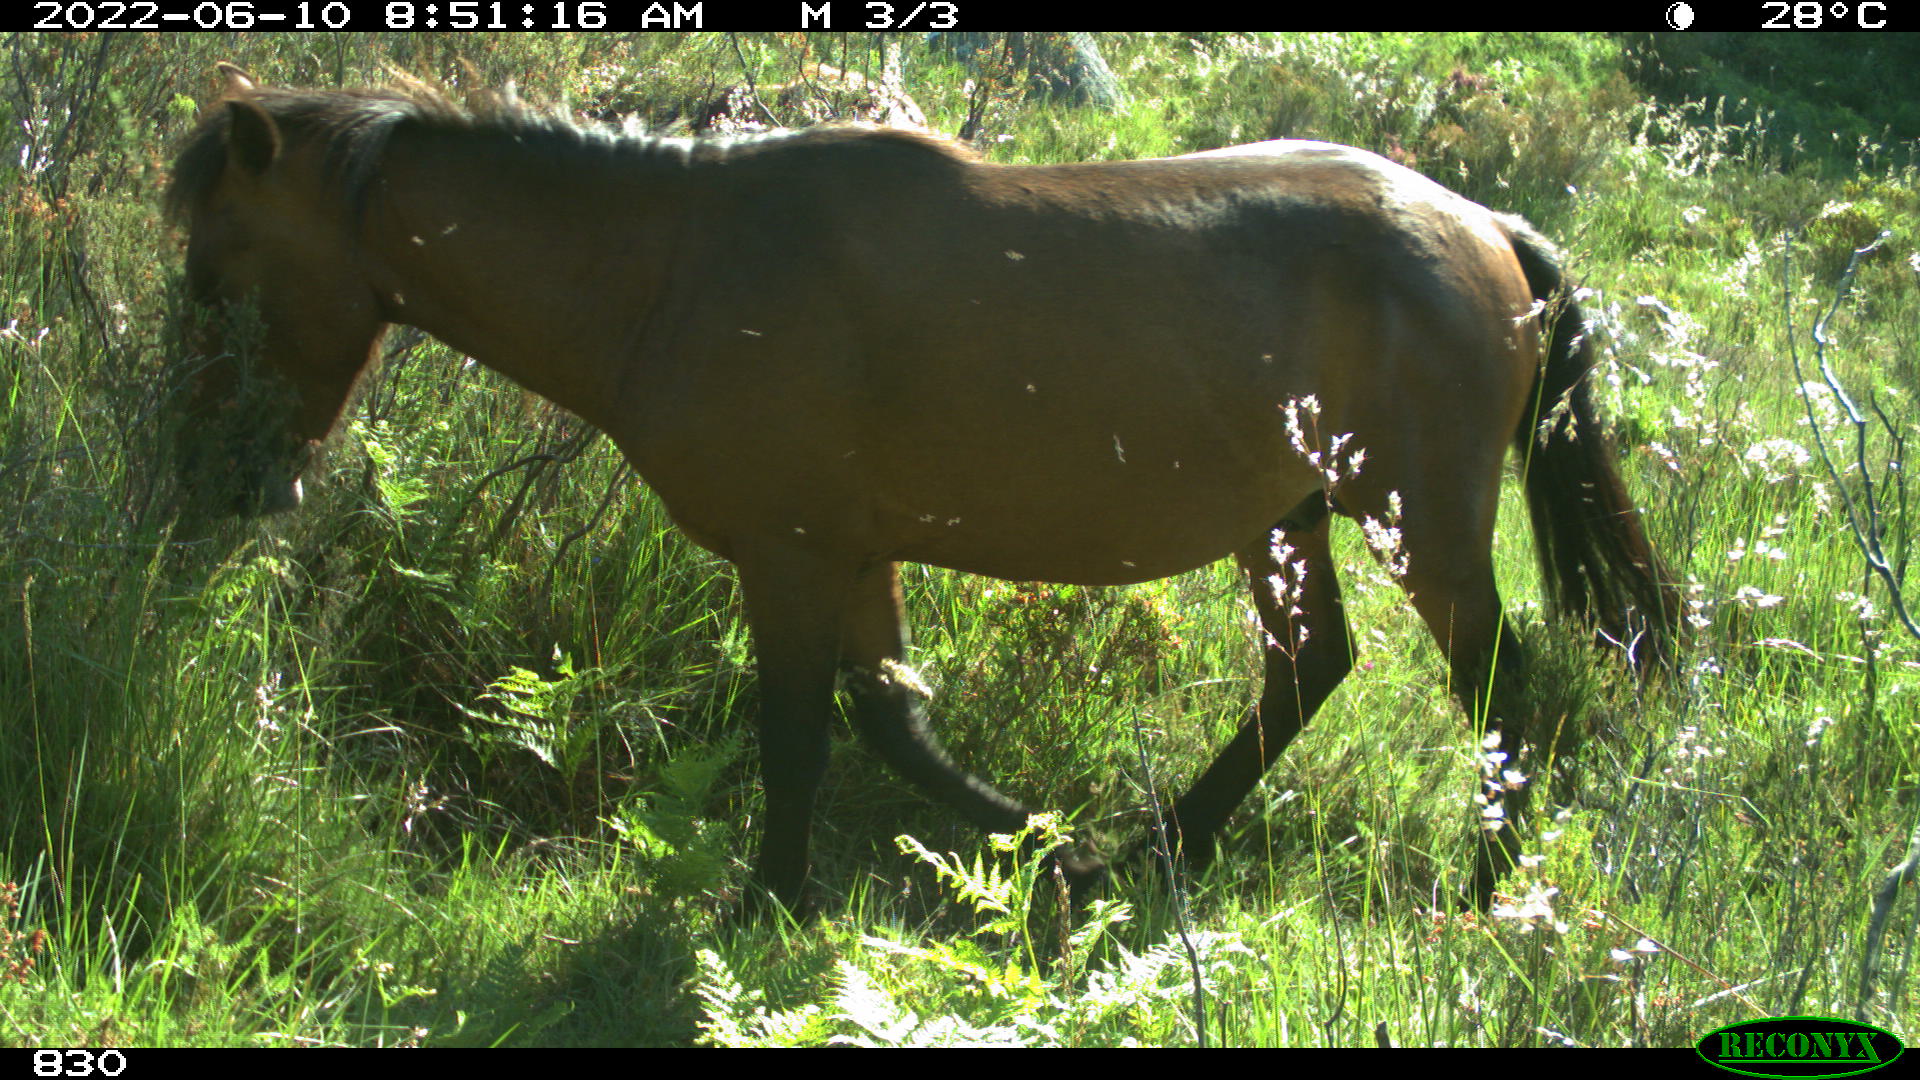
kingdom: Animalia
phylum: Chordata
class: Mammalia
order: Perissodactyla
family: Equidae
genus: Equus
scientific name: Equus caballus
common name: Horse
